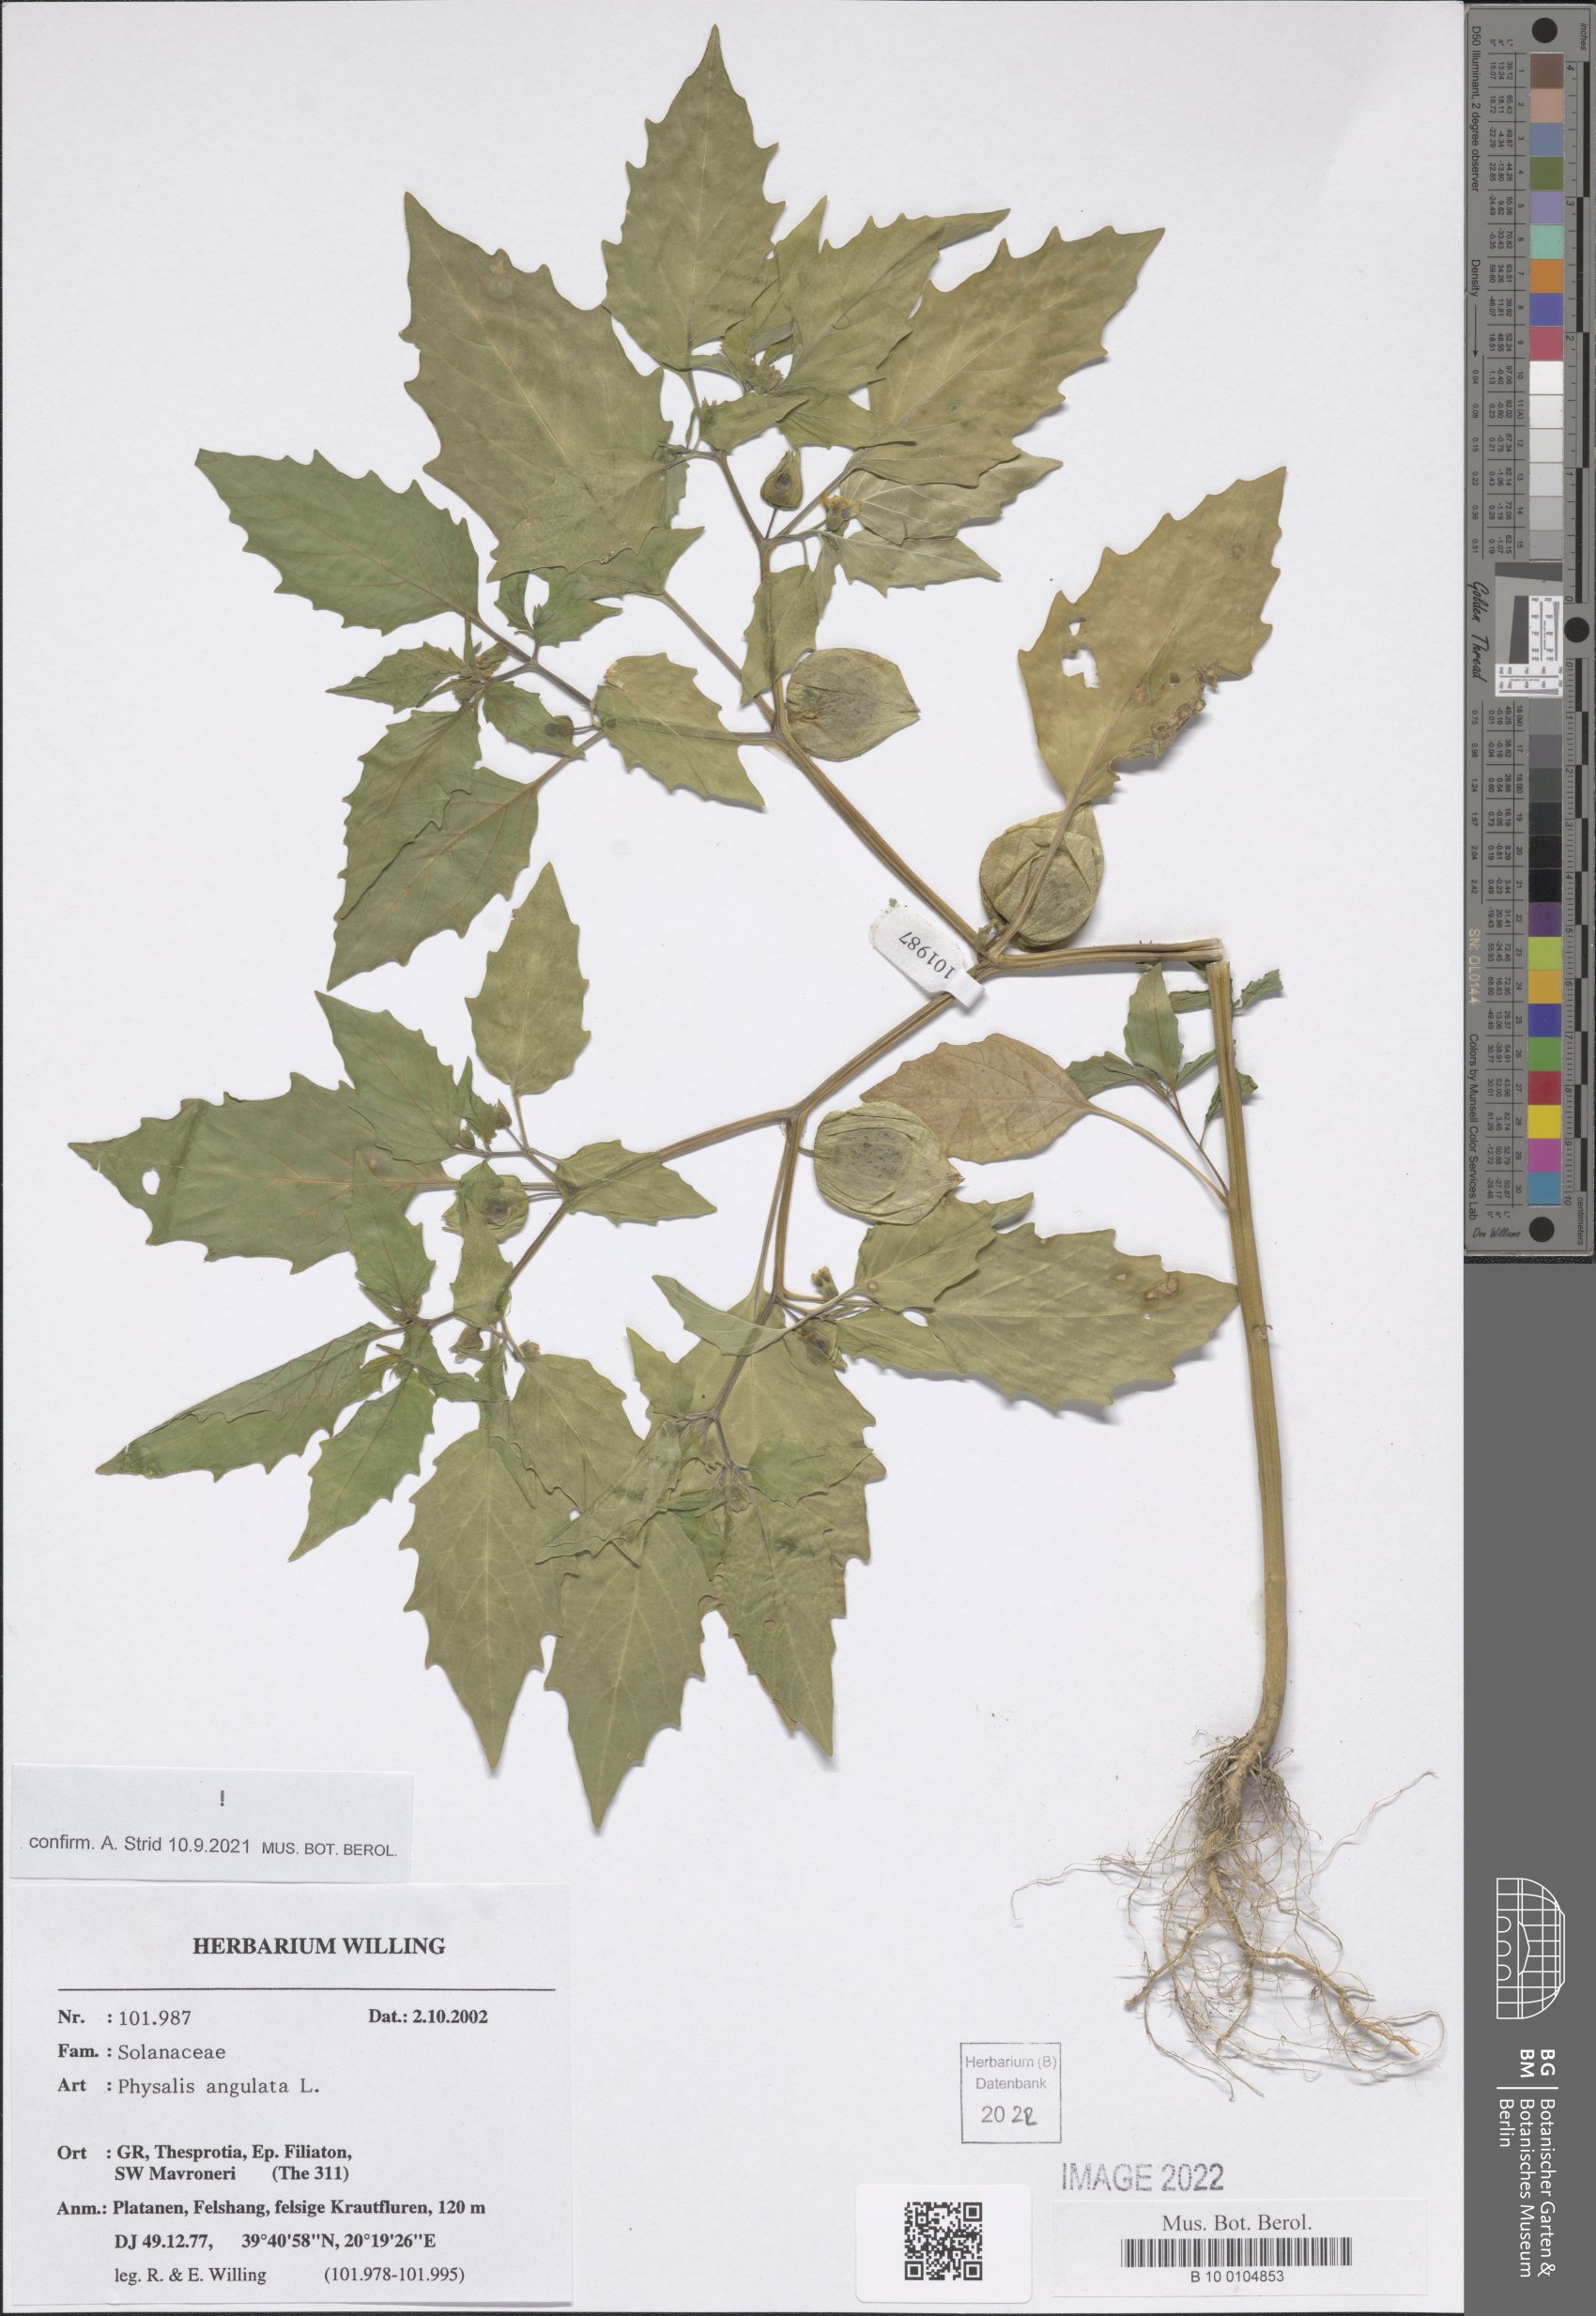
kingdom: Plantae
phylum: Tracheophyta
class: Magnoliopsida
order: Solanales
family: Solanaceae
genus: Physalis
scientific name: Physalis angulata
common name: Angular winter-cherry
